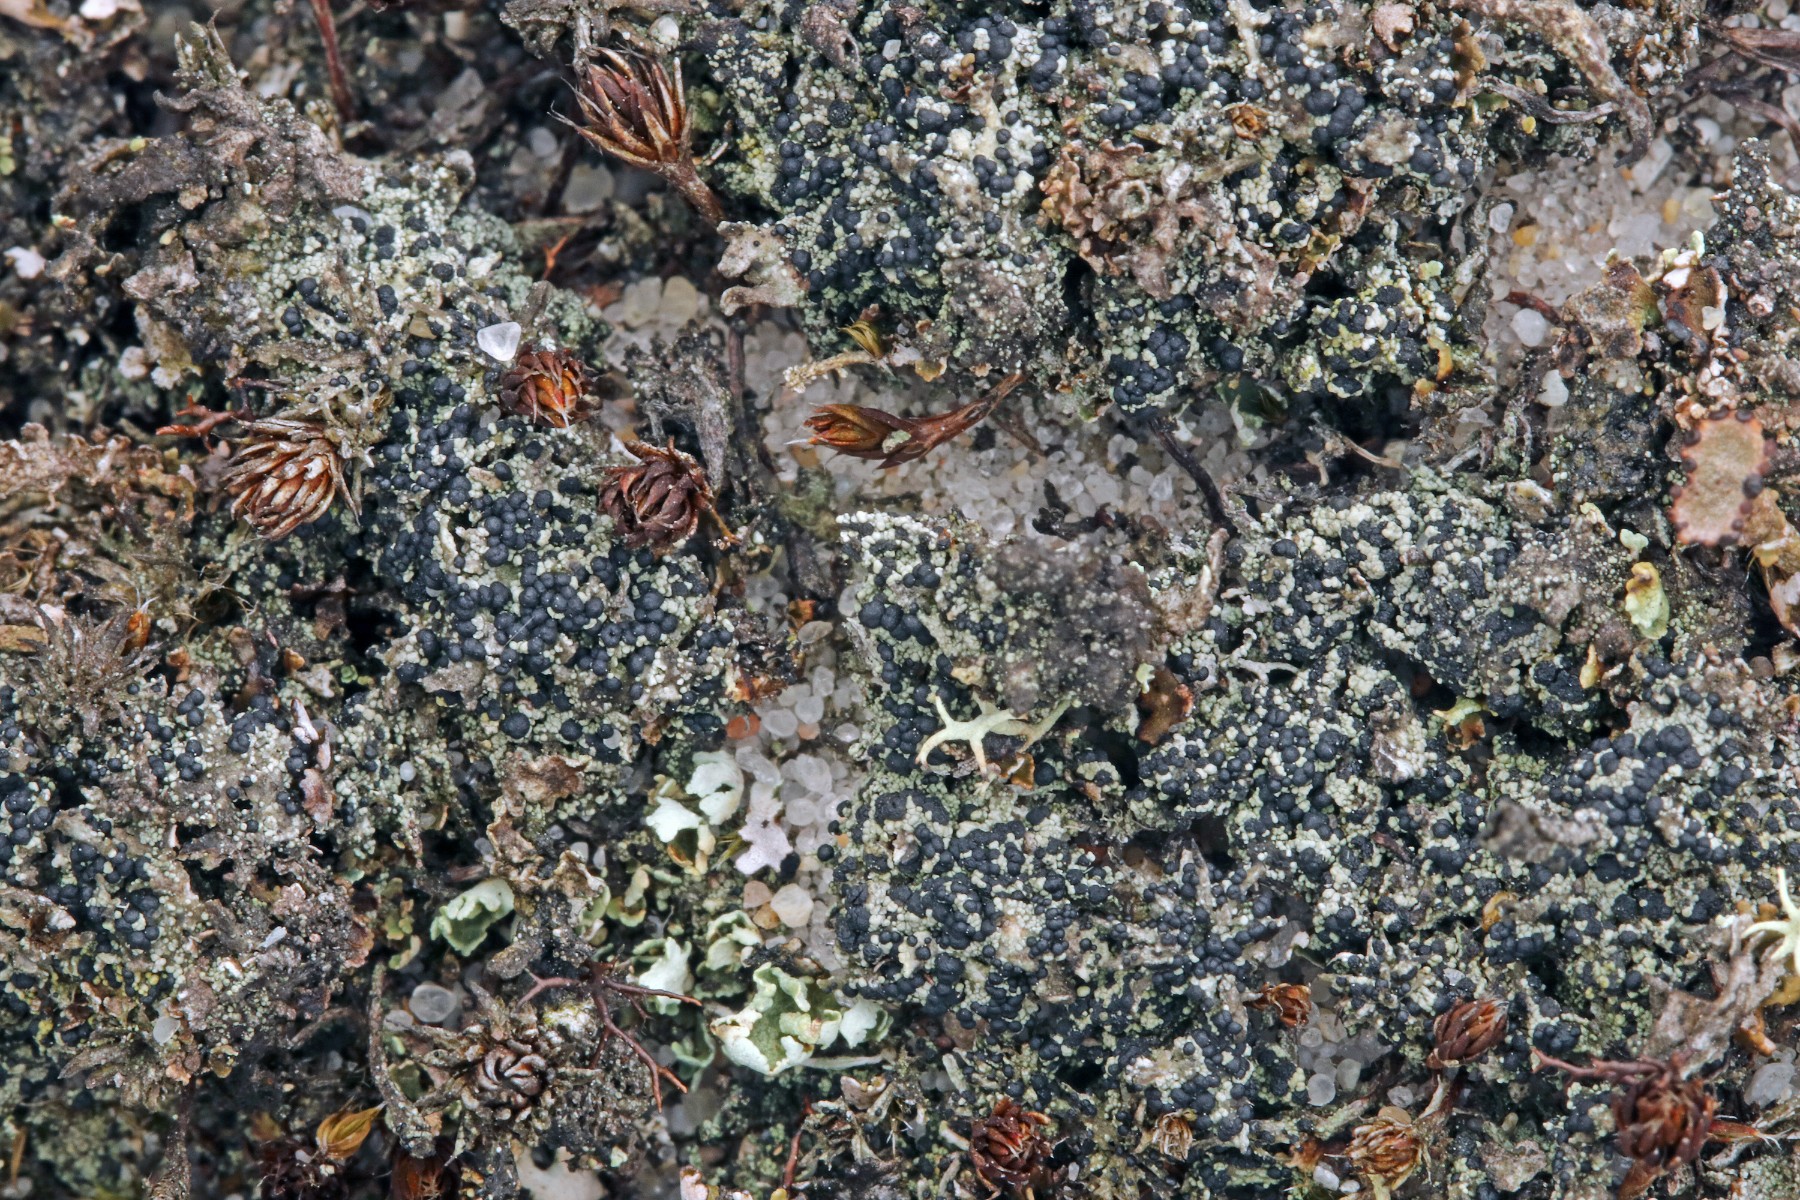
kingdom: Fungi
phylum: Ascomycota
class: Lecanoromycetes
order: Lecanorales
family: Byssolomataceae
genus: Micarea
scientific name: Micarea lignaria
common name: tørve-knaplav
